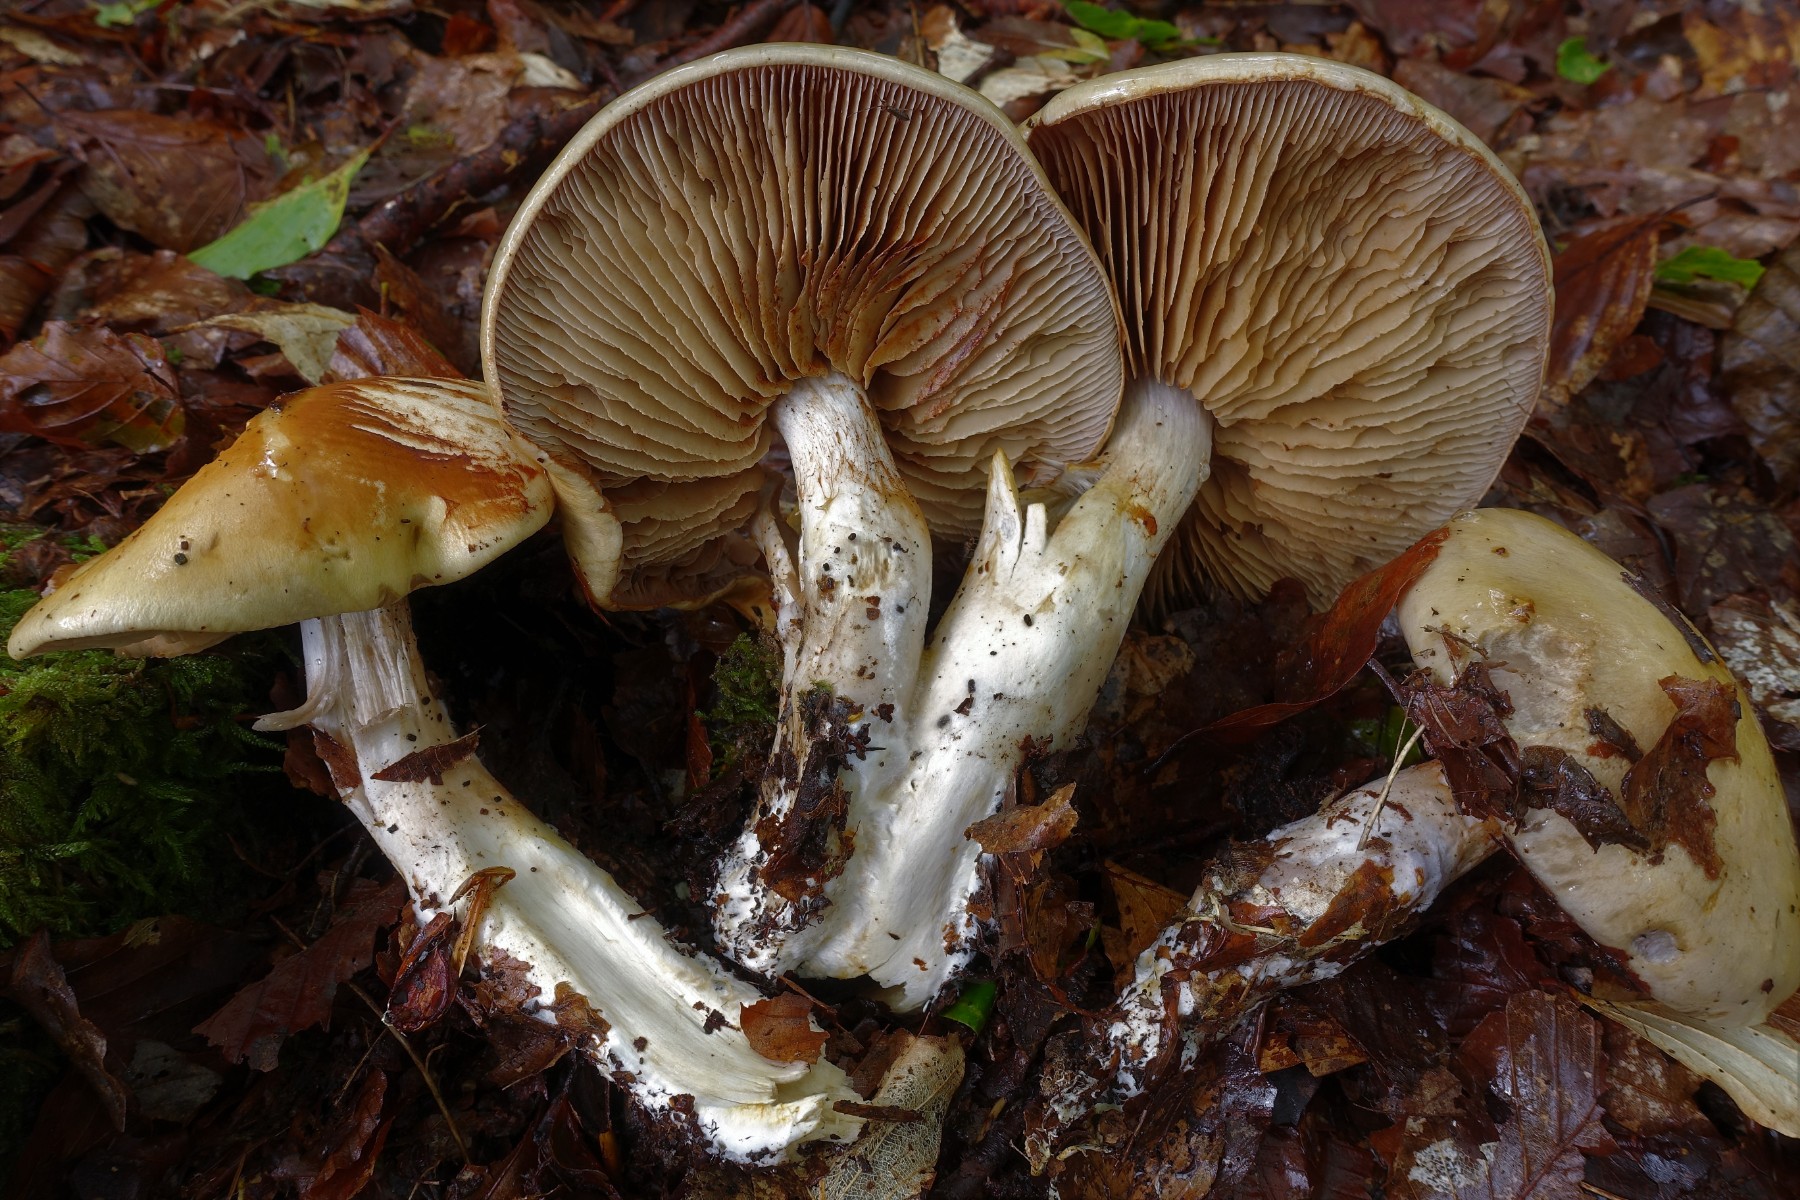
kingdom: Fungi
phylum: Basidiomycota
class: Agaricomycetes
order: Agaricales
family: Cortinariaceae
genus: Cortinarius
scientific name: Cortinarius delibutus
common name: gul slørhat
